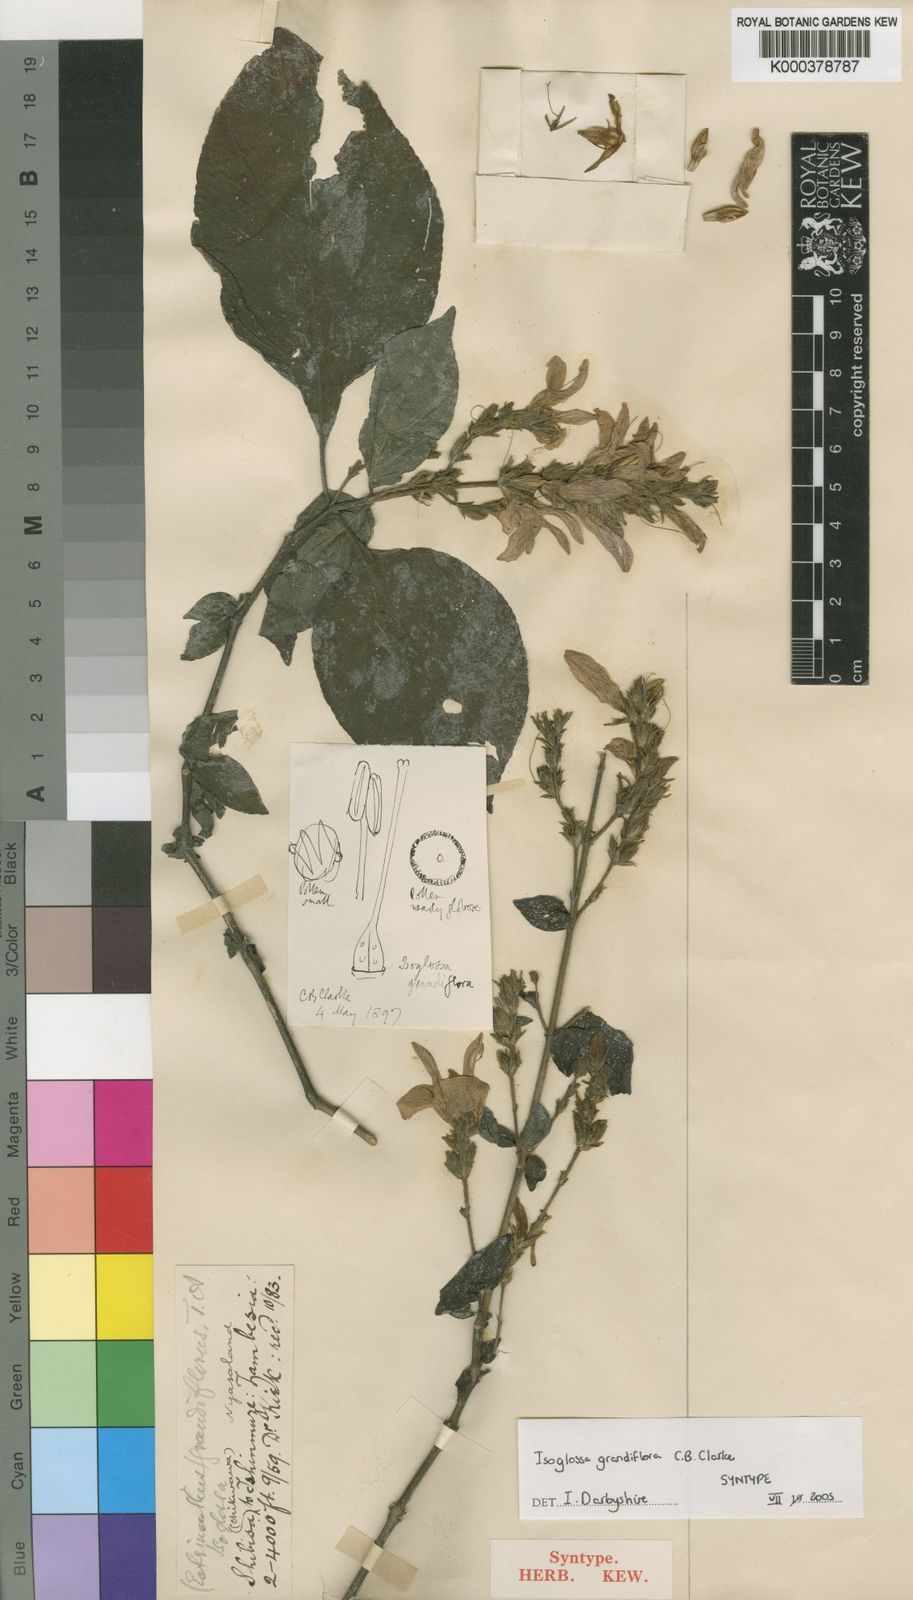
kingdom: Plantae
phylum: Tracheophyta
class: Magnoliopsida
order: Lamiales
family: Acanthaceae
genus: Isoglossa
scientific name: Isoglossa
